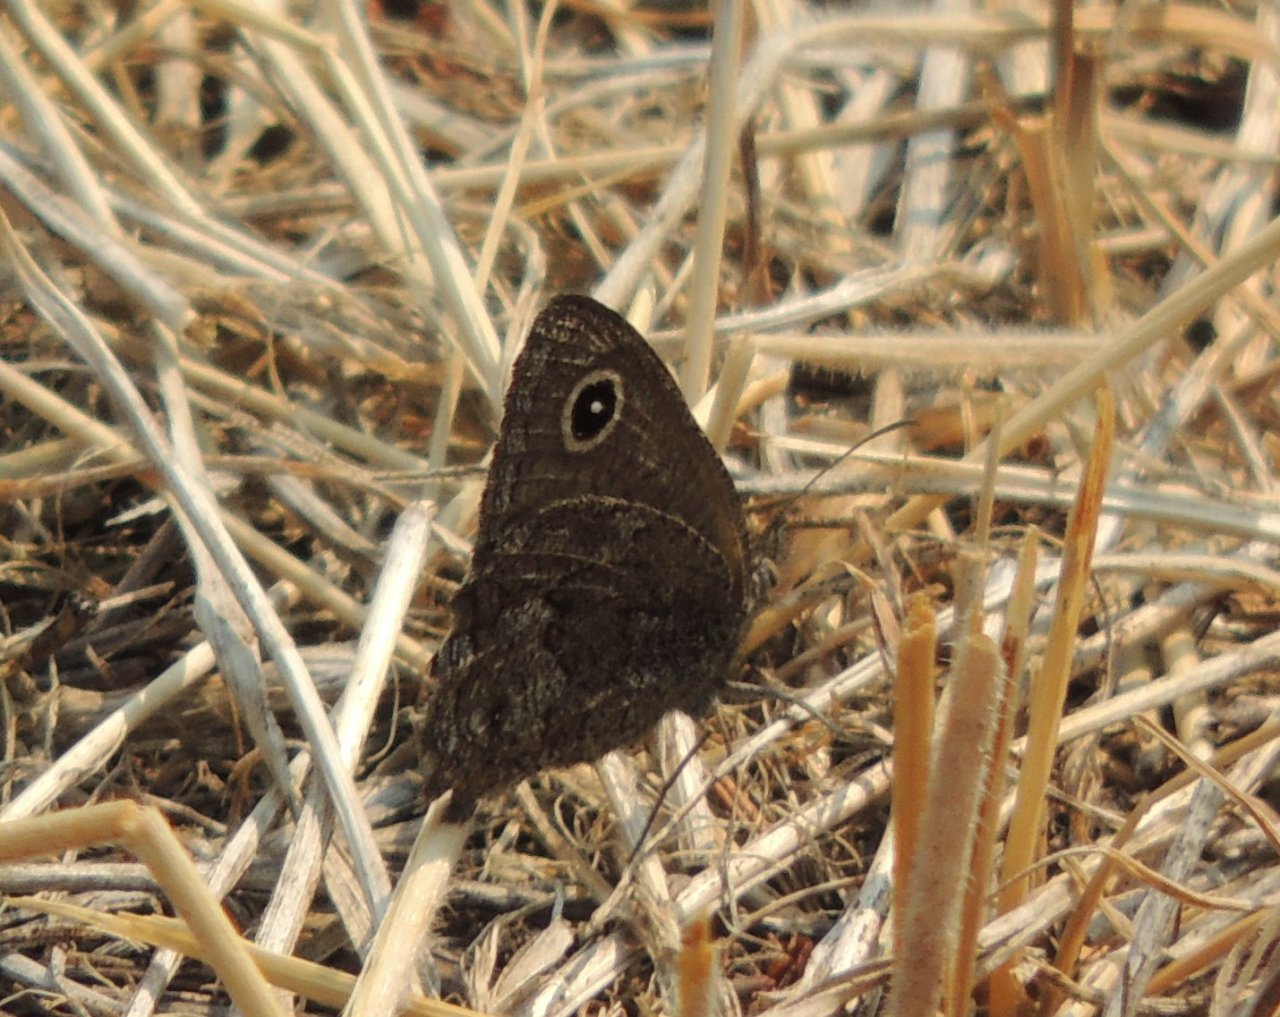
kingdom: Animalia
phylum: Arthropoda
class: Insecta
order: Lepidoptera
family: Nymphalidae
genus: Cercyonis
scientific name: Cercyonis oetus
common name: Small Wood-Nymph
